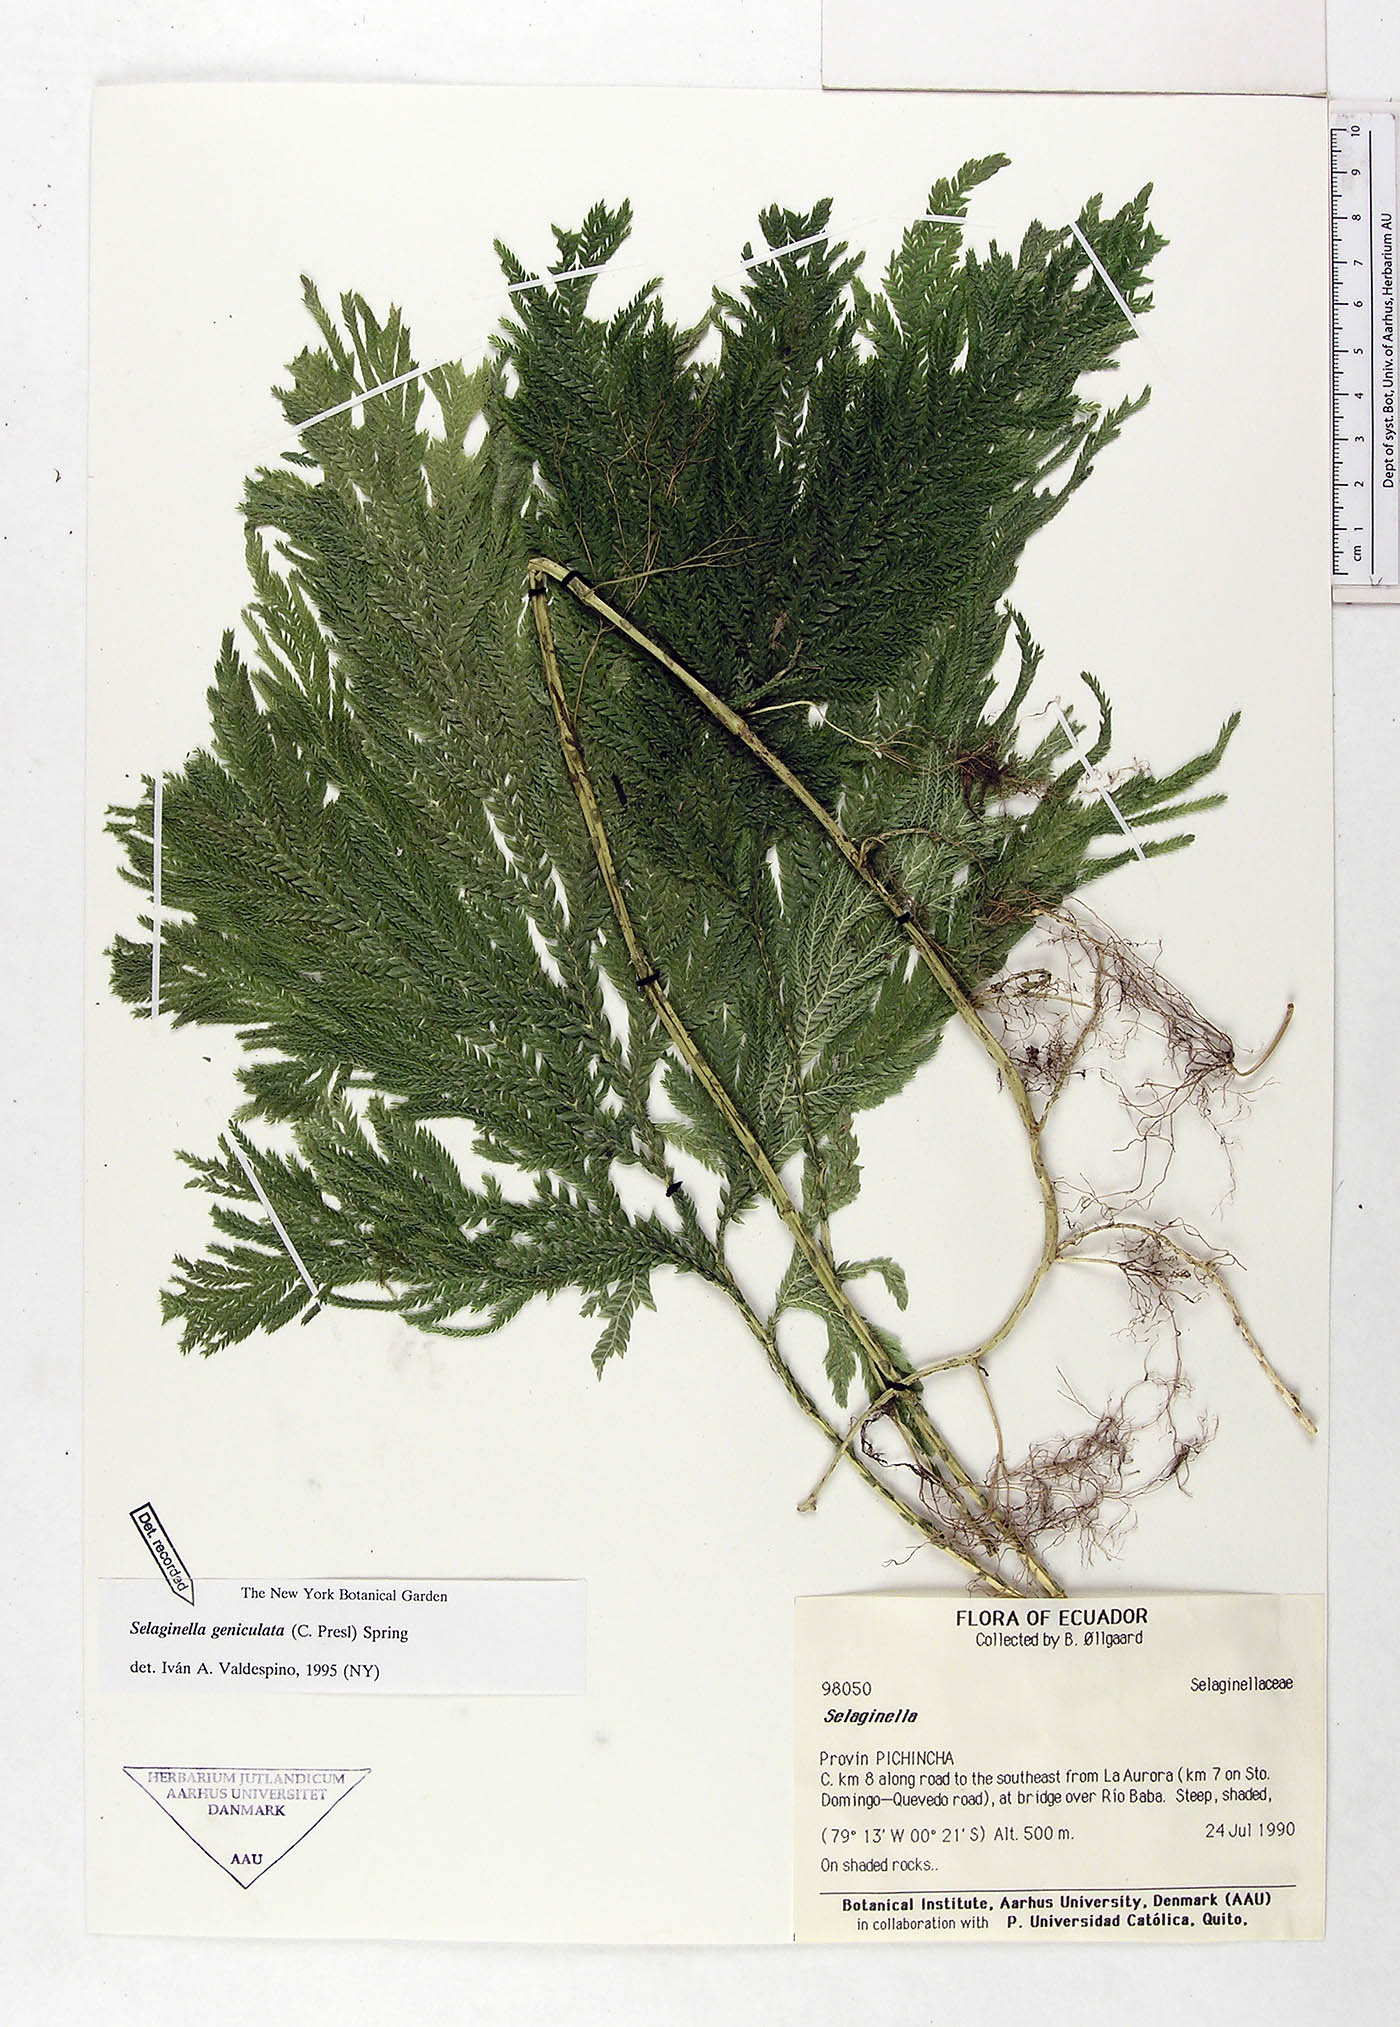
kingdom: Plantae
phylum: Tracheophyta
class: Lycopodiopsida
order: Selaginellales
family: Selaginellaceae
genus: Selaginella
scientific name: Selaginella geniculata
